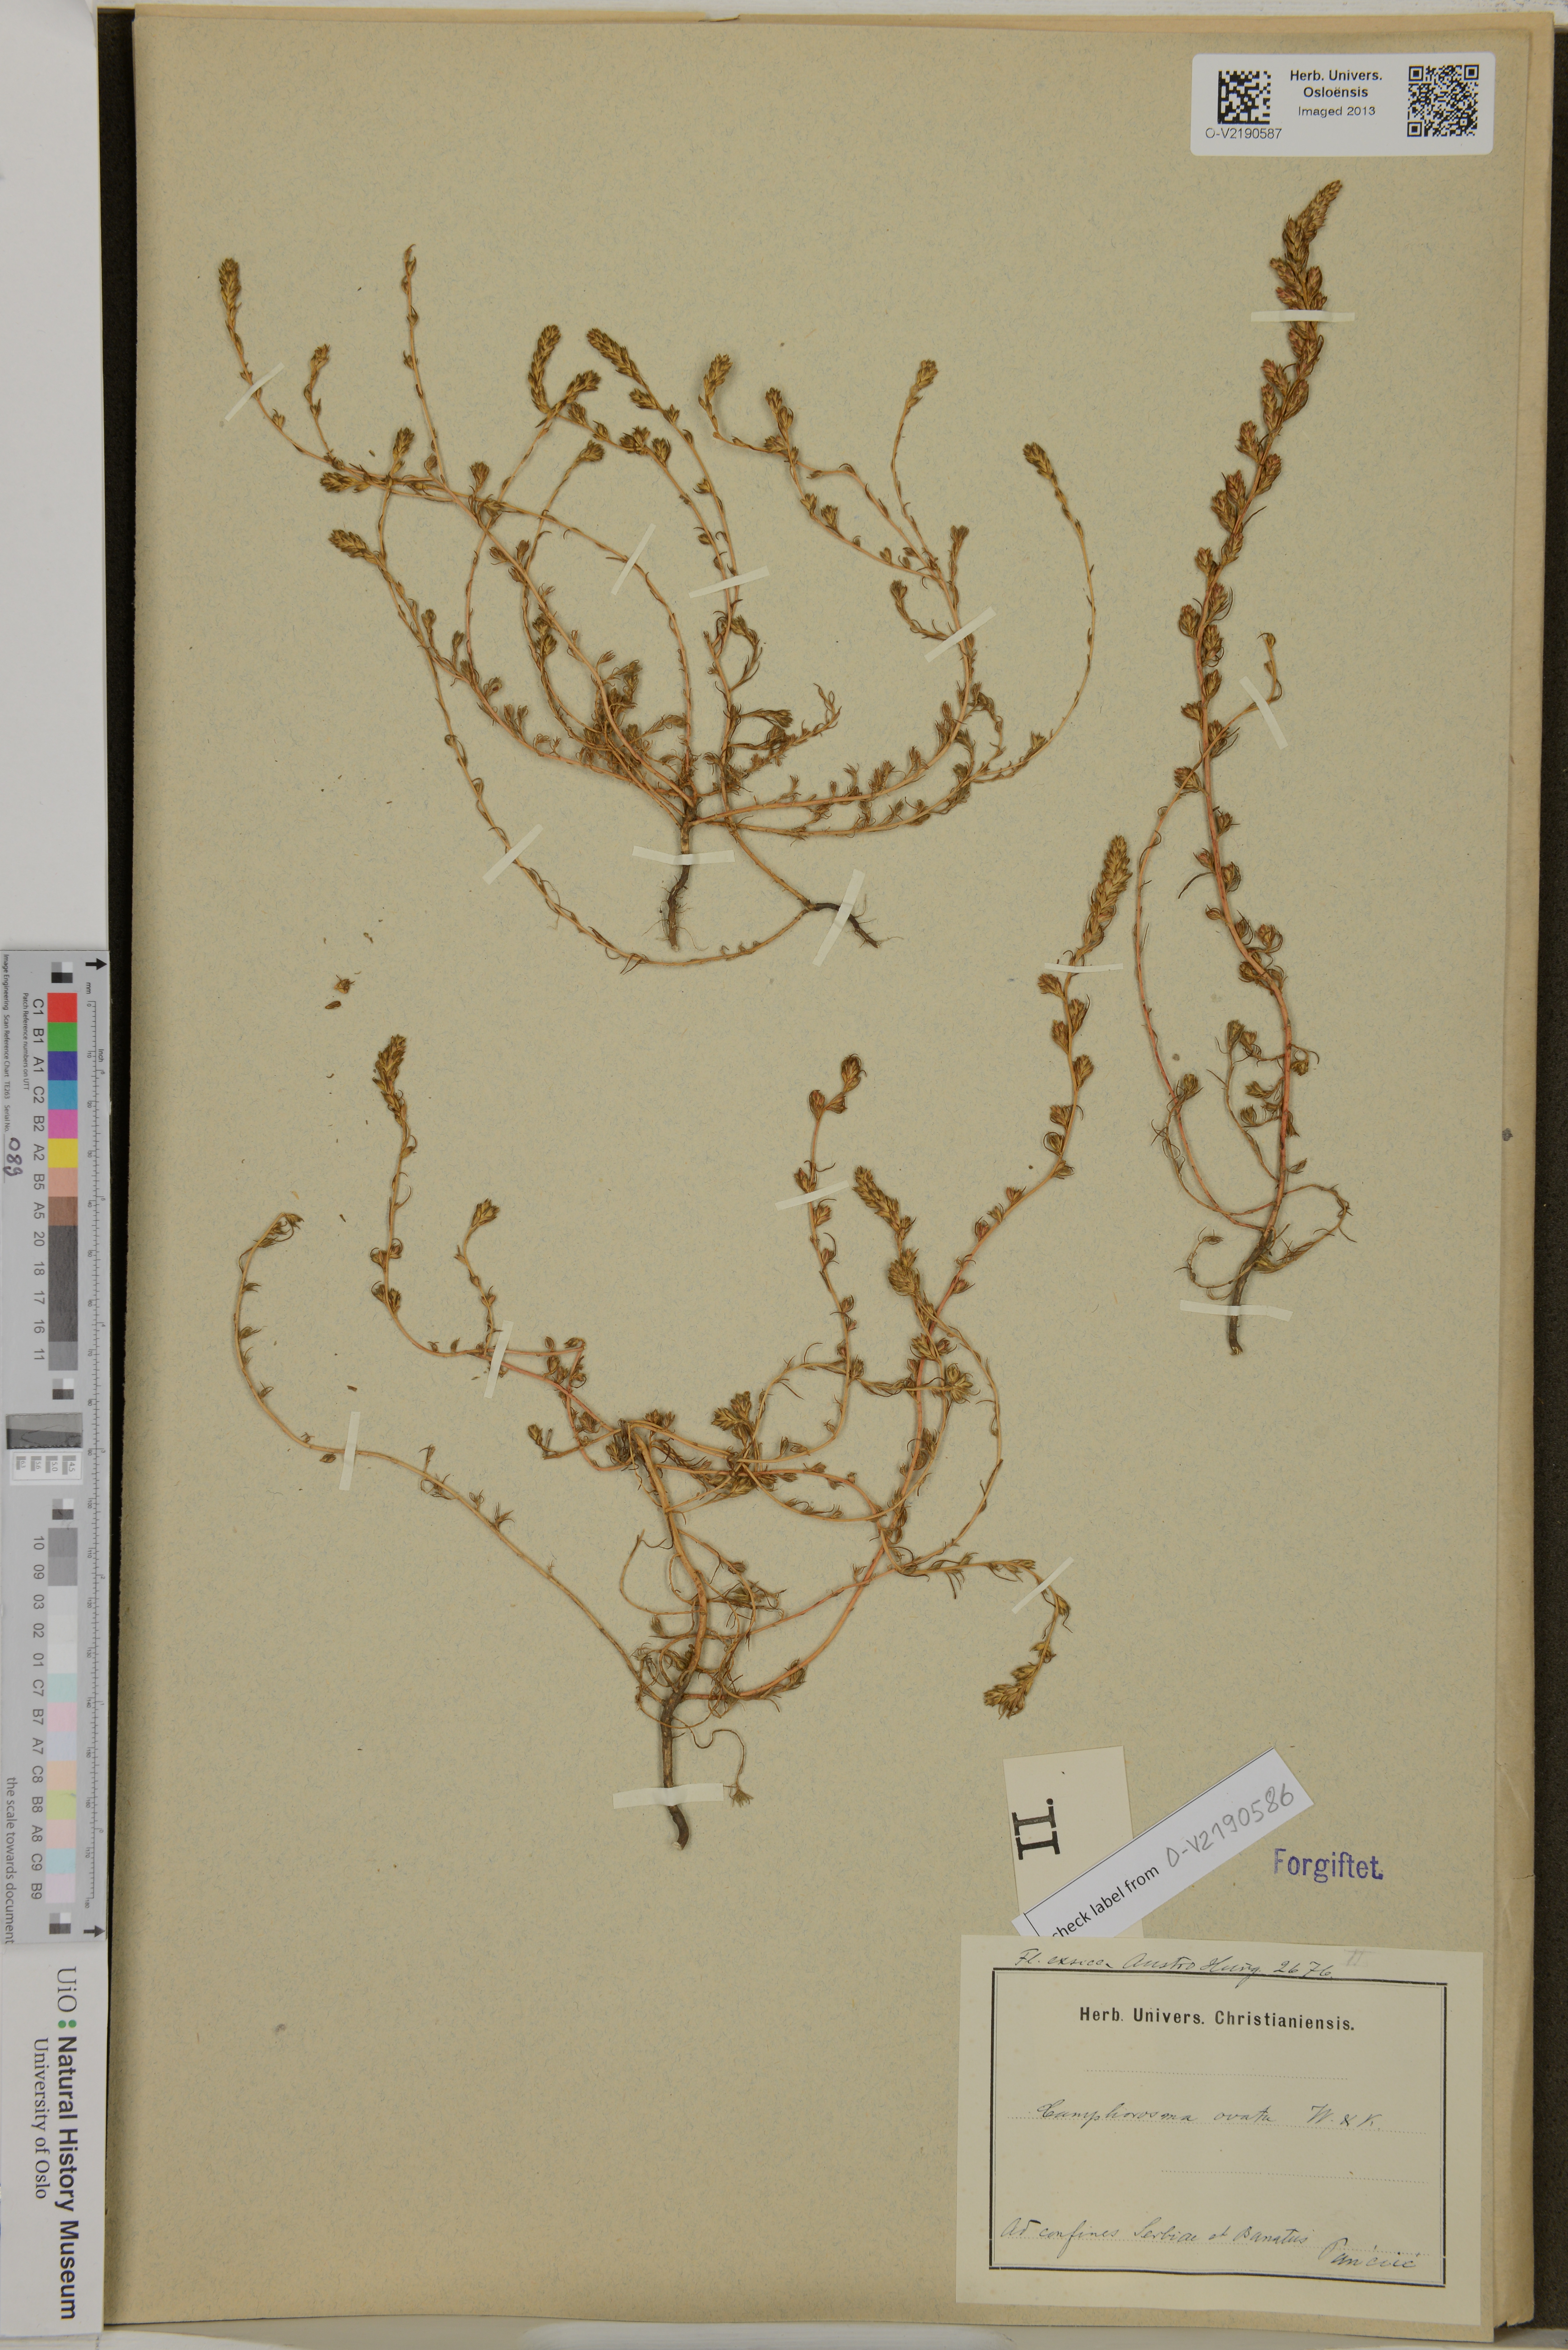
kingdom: Plantae
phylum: Tracheophyta
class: Magnoliopsida
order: Caryophyllales
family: Amaranthaceae
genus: Camphorosma
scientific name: Camphorosma ovata
